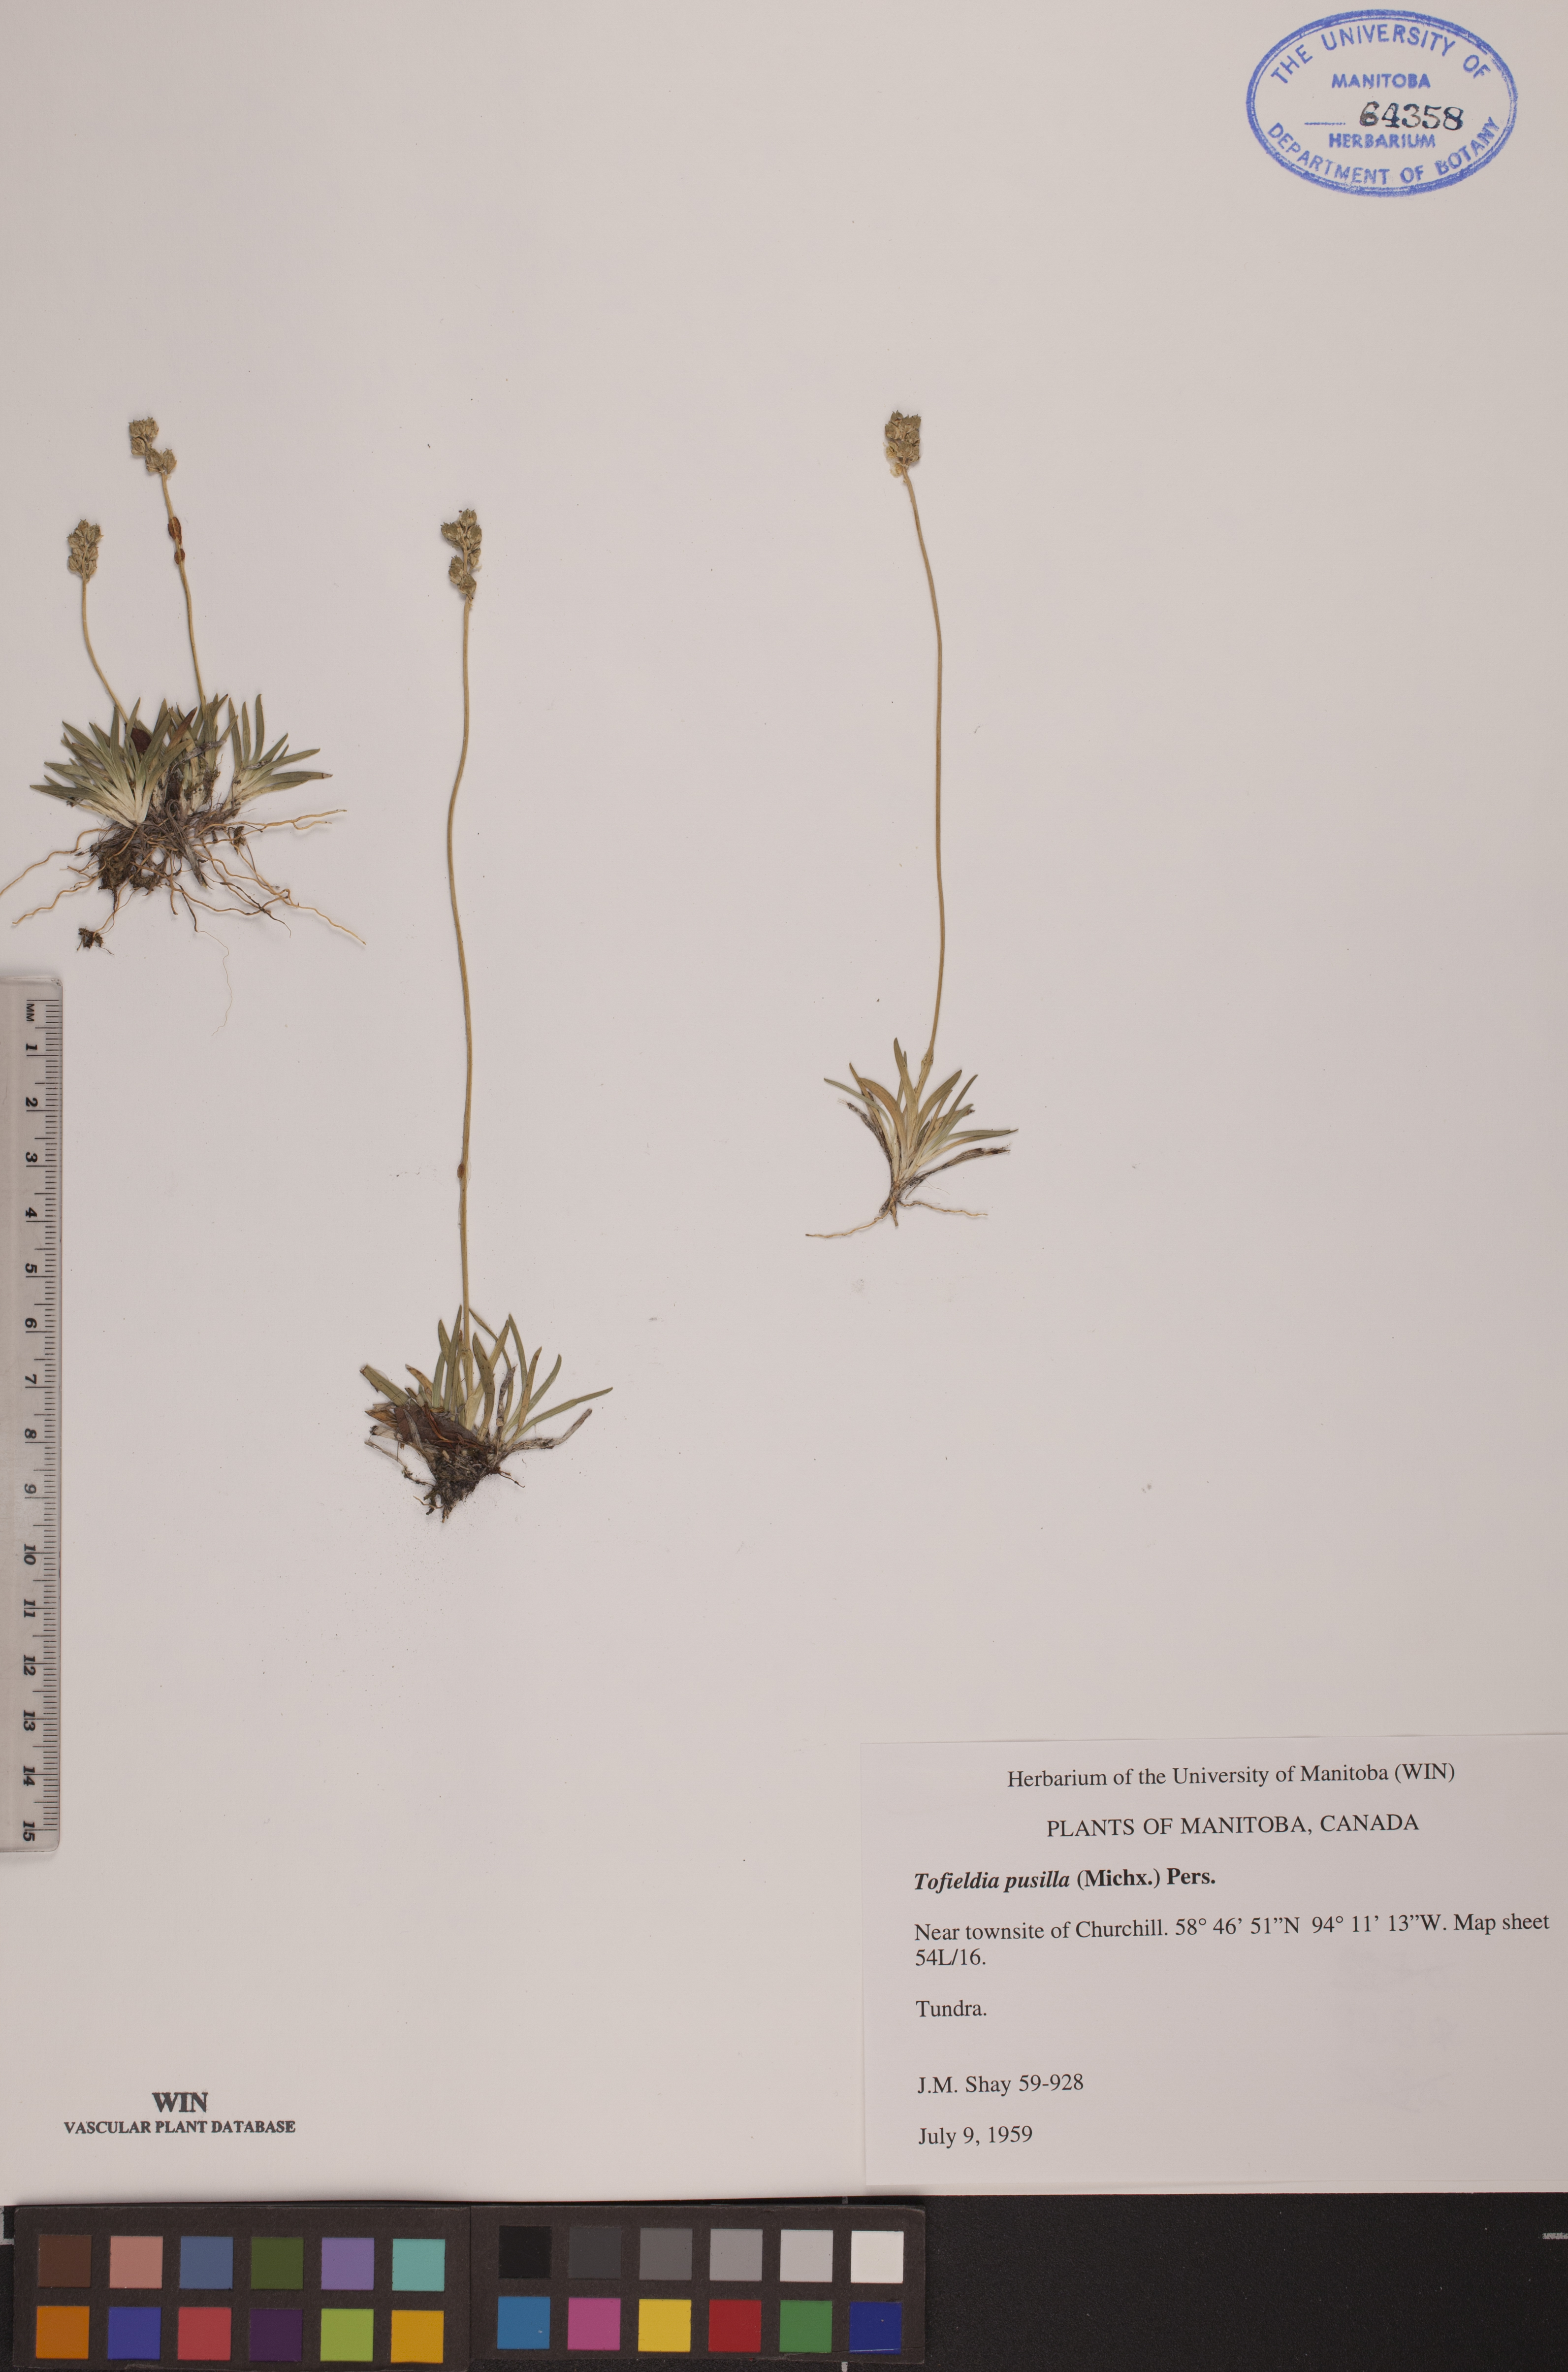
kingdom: Plantae
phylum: Tracheophyta
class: Liliopsida
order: Alismatales
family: Tofieldiaceae
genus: Tofieldia
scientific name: Tofieldia pusilla
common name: Scottish false asphodel
